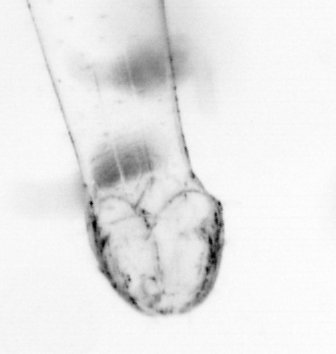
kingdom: Animalia
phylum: Arthropoda
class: Copepoda
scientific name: Copepoda
